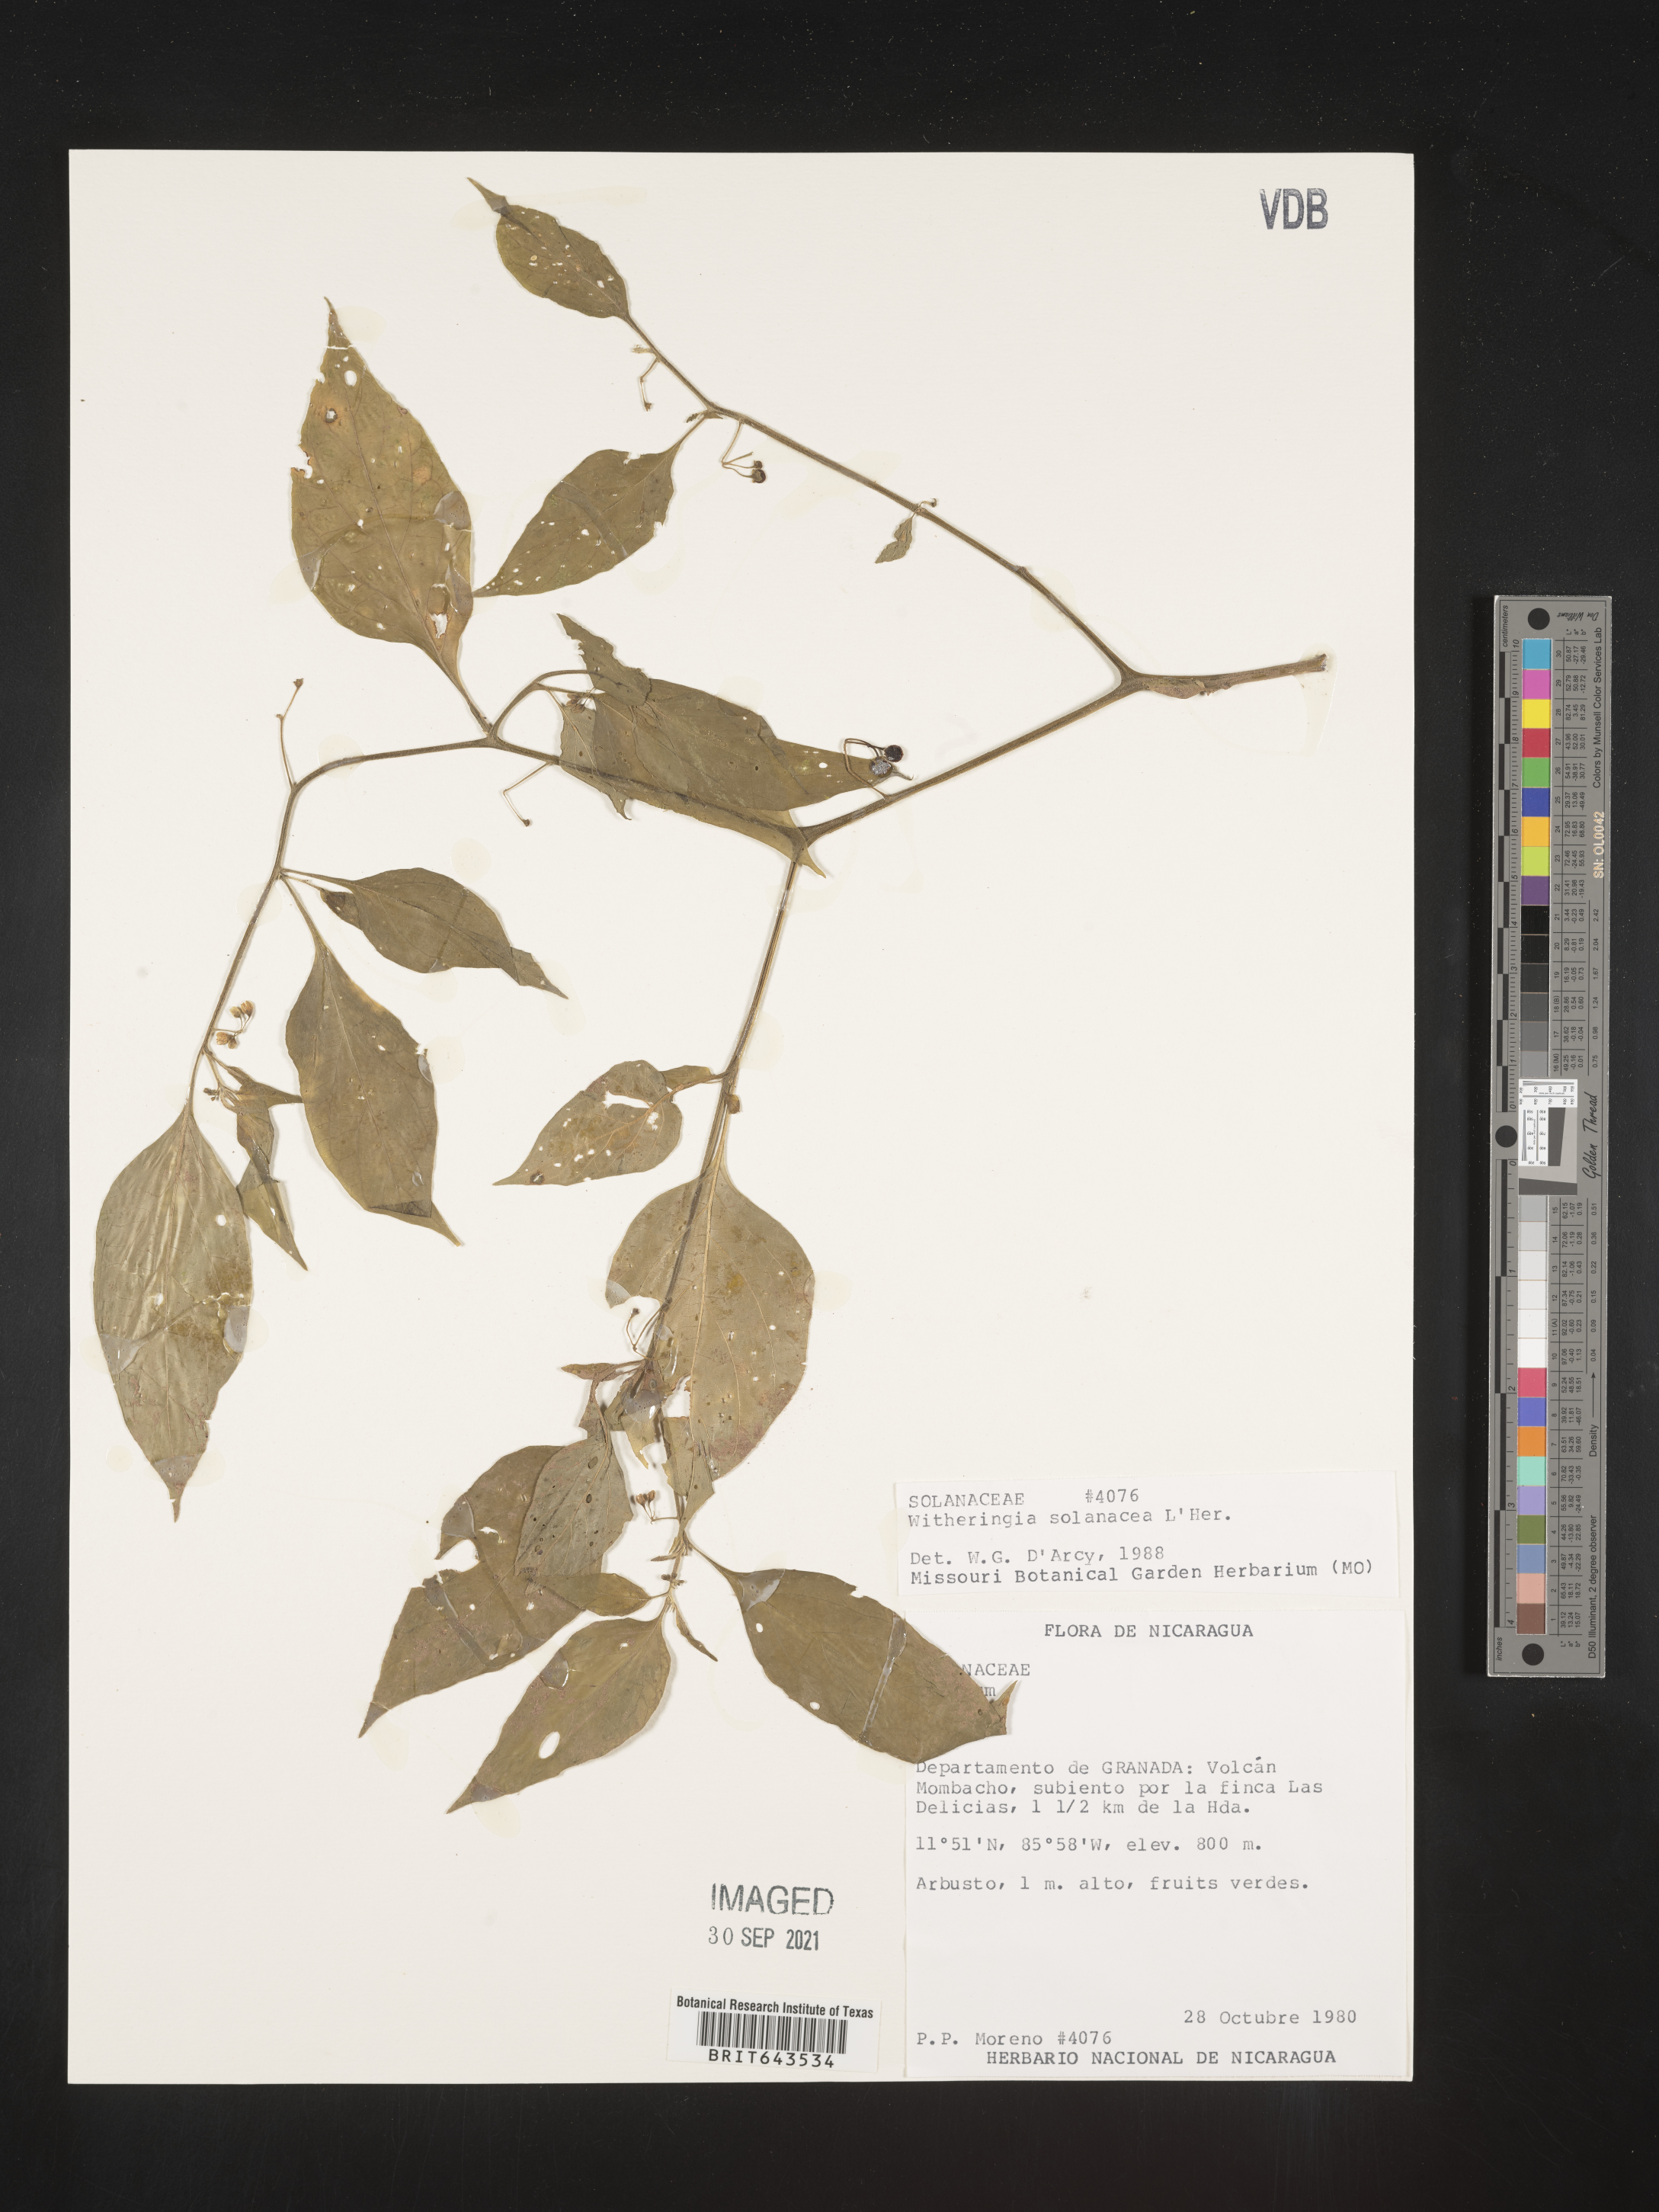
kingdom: Plantae
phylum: Tracheophyta
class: Magnoliopsida
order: Solanales
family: Solanaceae
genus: Witheringia
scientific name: Witheringia
